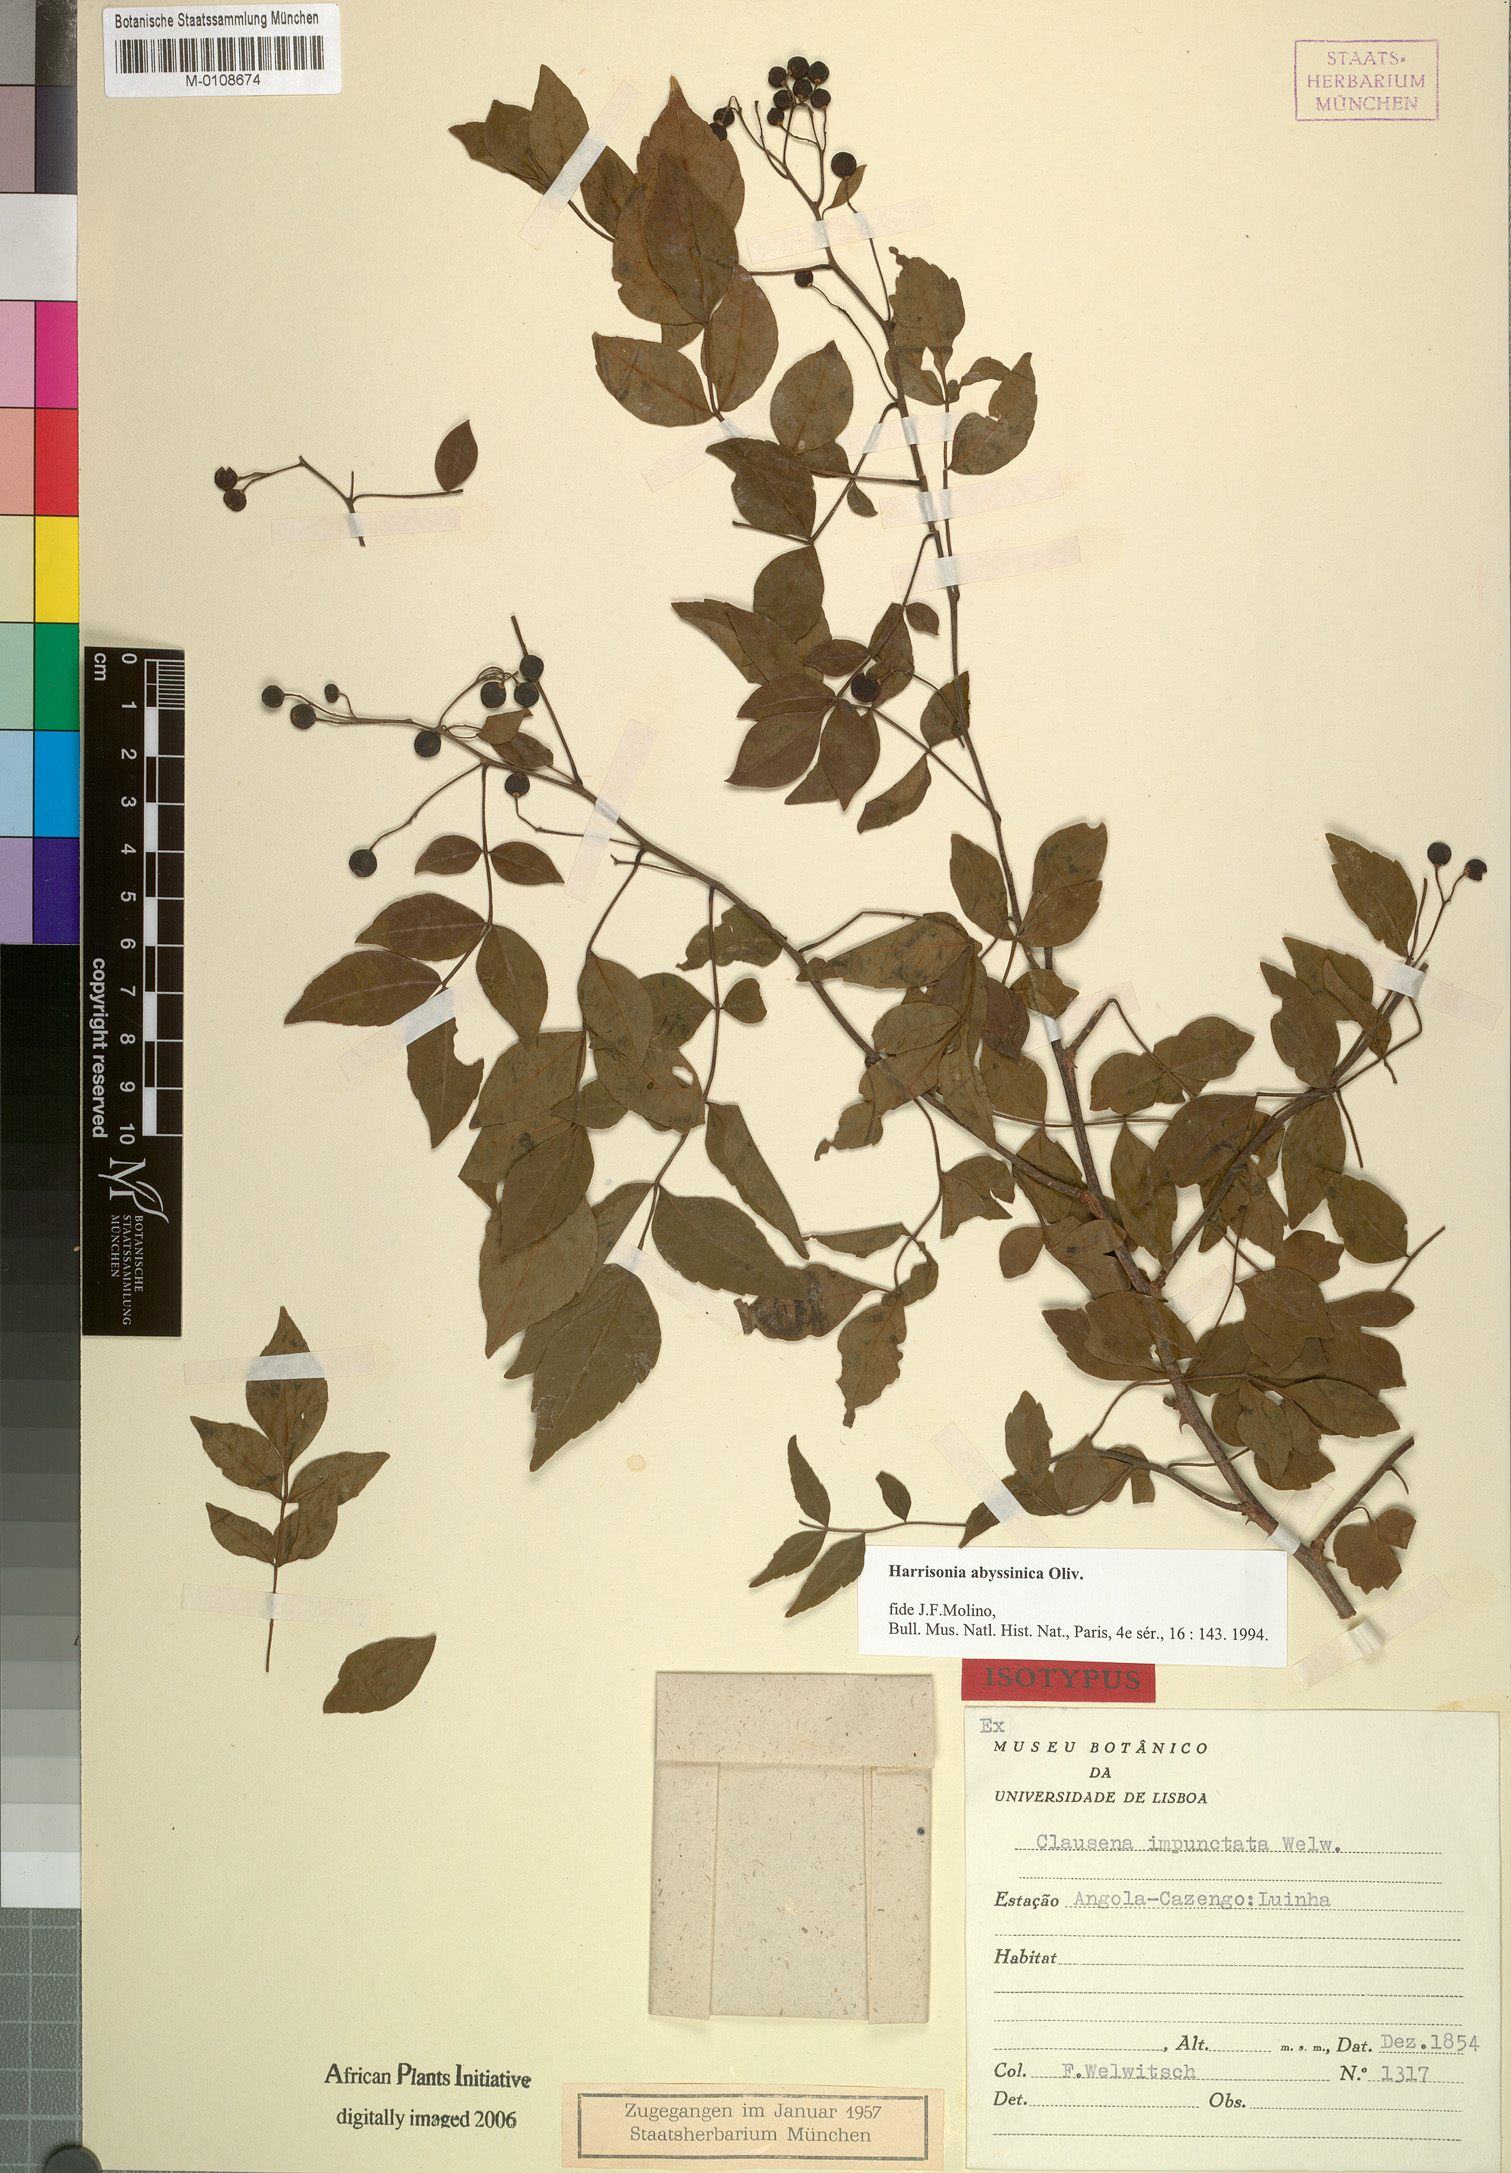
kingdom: Plantae
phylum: Tracheophyta
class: Magnoliopsida
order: Sapindales
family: Rutaceae
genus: Harrisonia
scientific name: Harrisonia abyssinica
